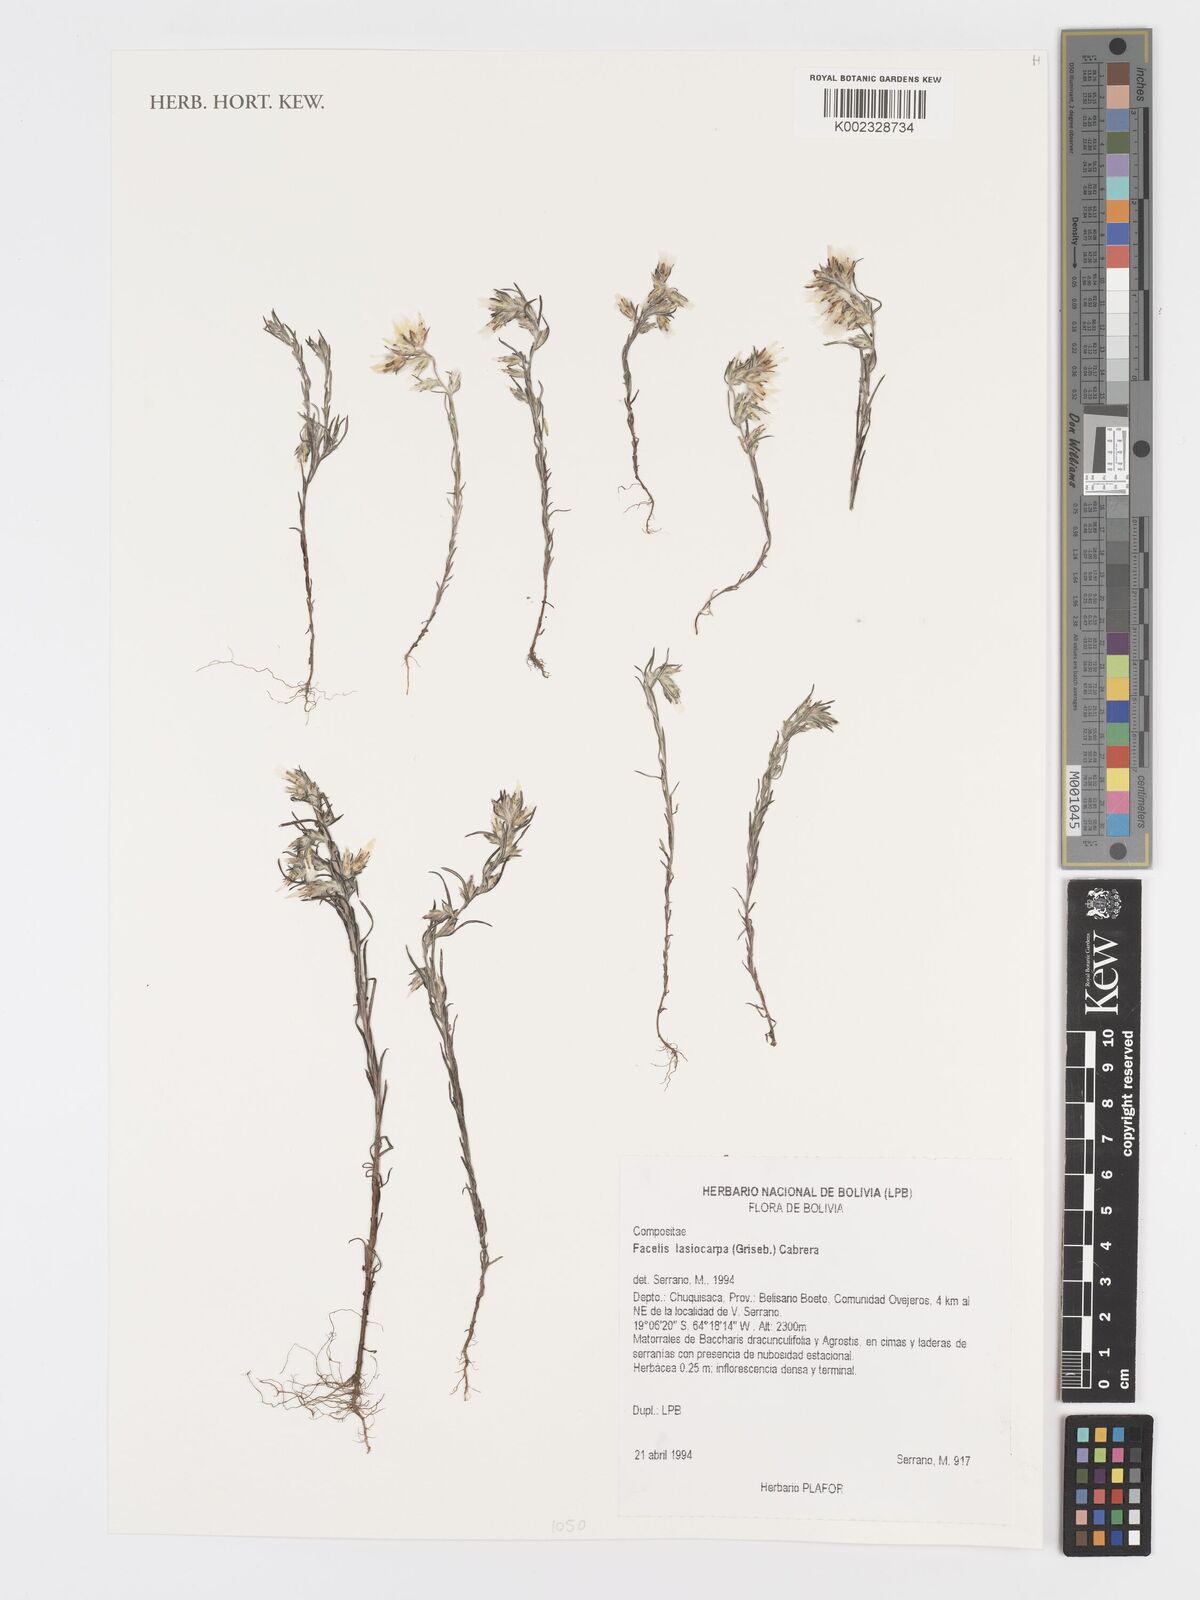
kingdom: Plantae
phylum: Tracheophyta
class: Magnoliopsida
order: Asterales
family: Asteraceae
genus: Facelis
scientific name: Facelis lasiocarpa
